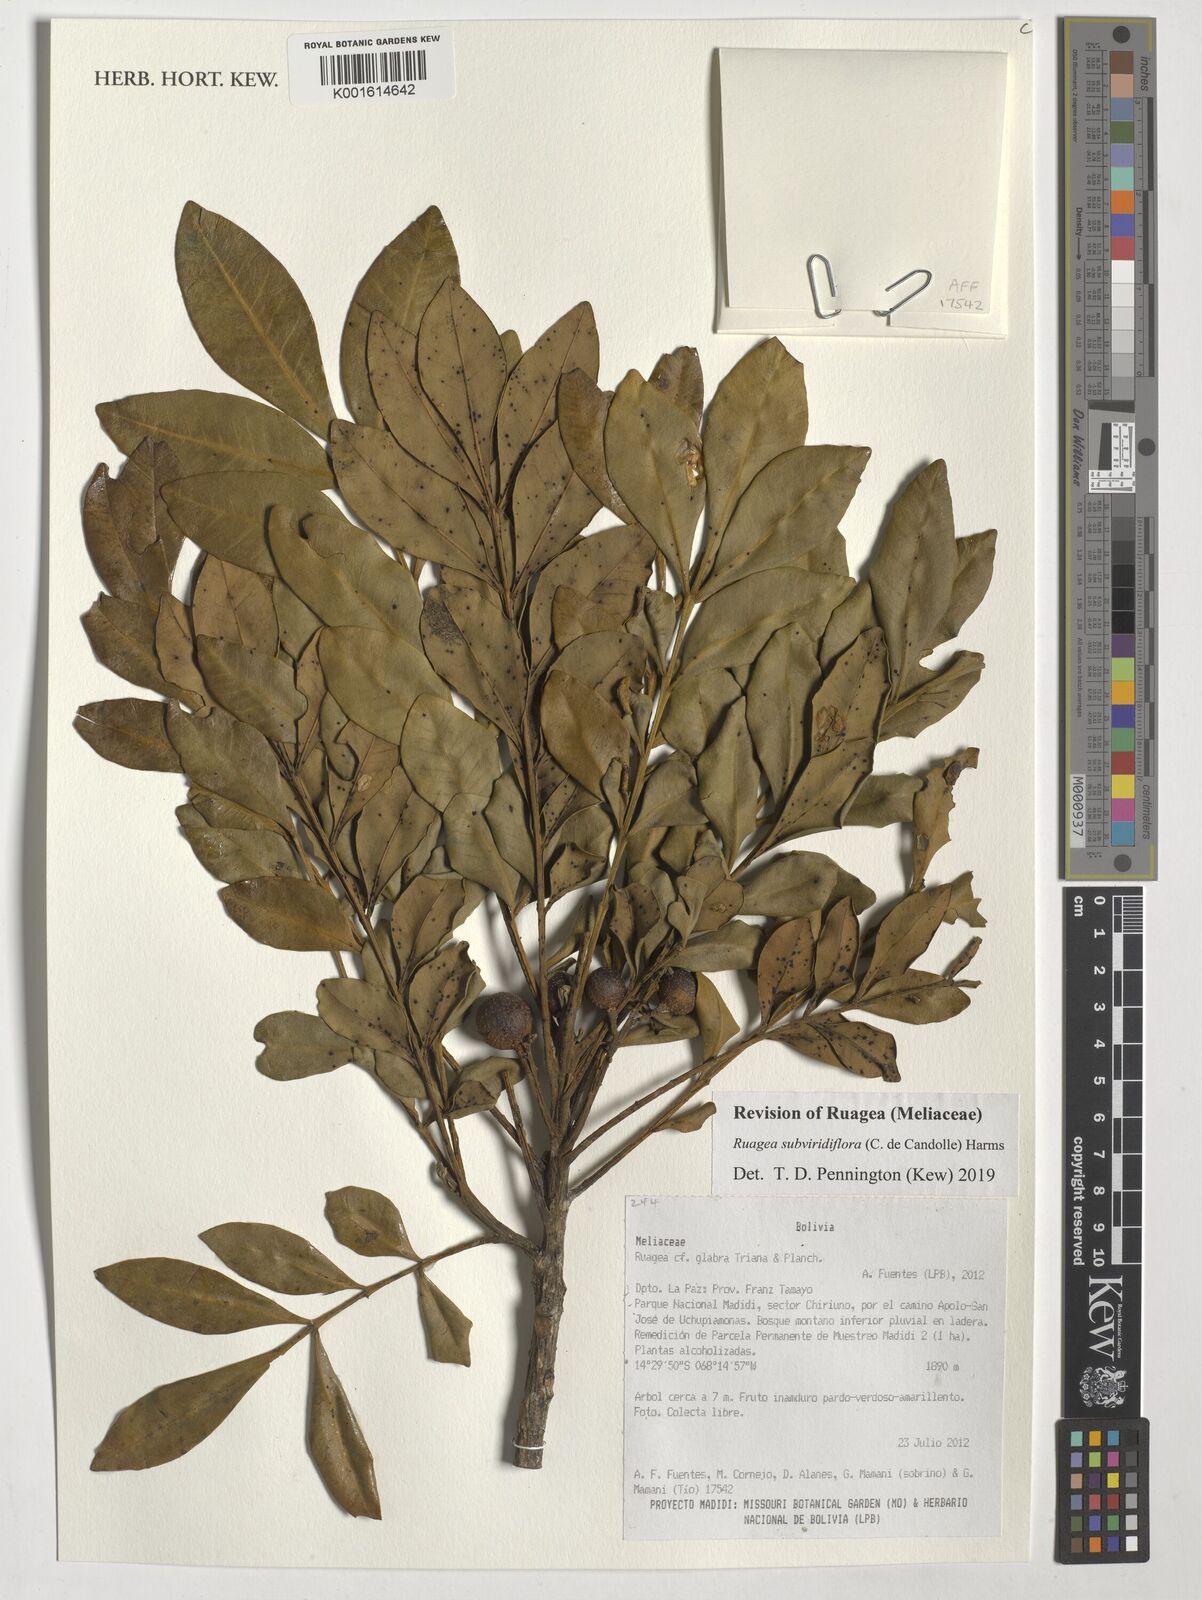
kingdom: Plantae
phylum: Tracheophyta
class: Magnoliopsida
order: Sapindales
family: Meliaceae
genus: Ruagea
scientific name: Ruagea subviridiflora
